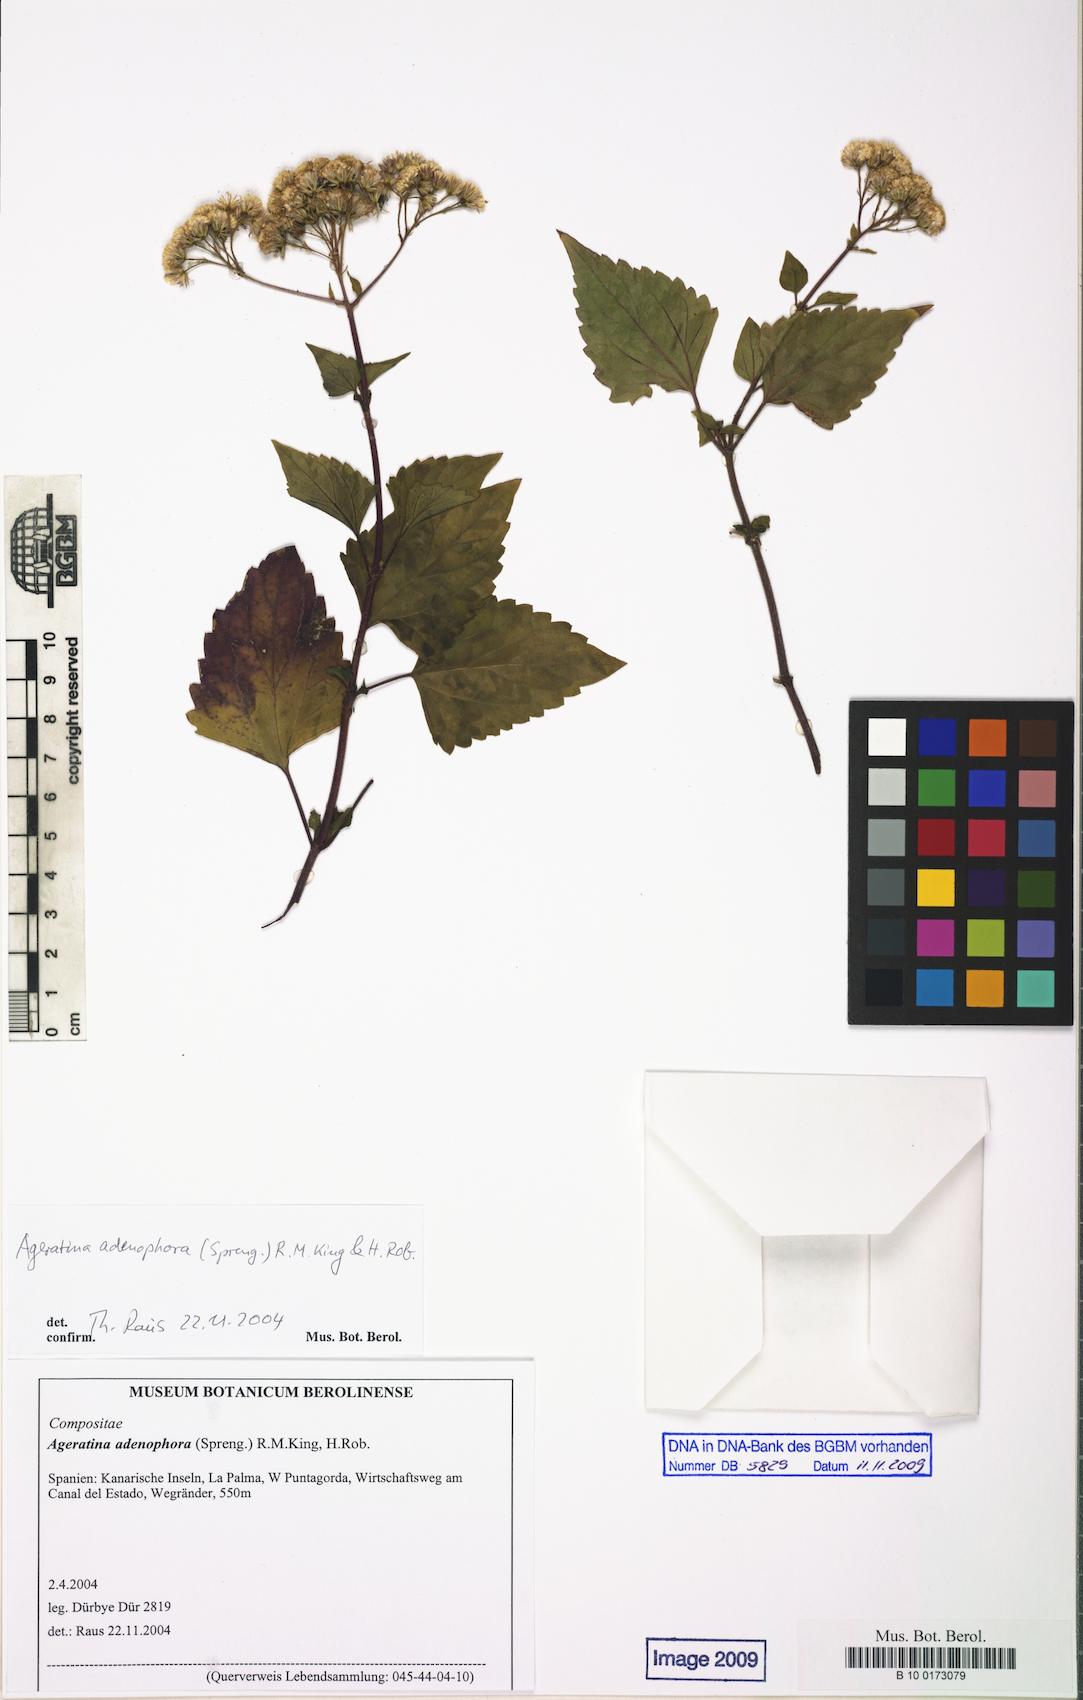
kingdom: Plantae
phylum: Tracheophyta
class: Magnoliopsida
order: Asterales
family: Asteraceae
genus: Ageratina
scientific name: Ageratina adenophora
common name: Sticky snakeroot
